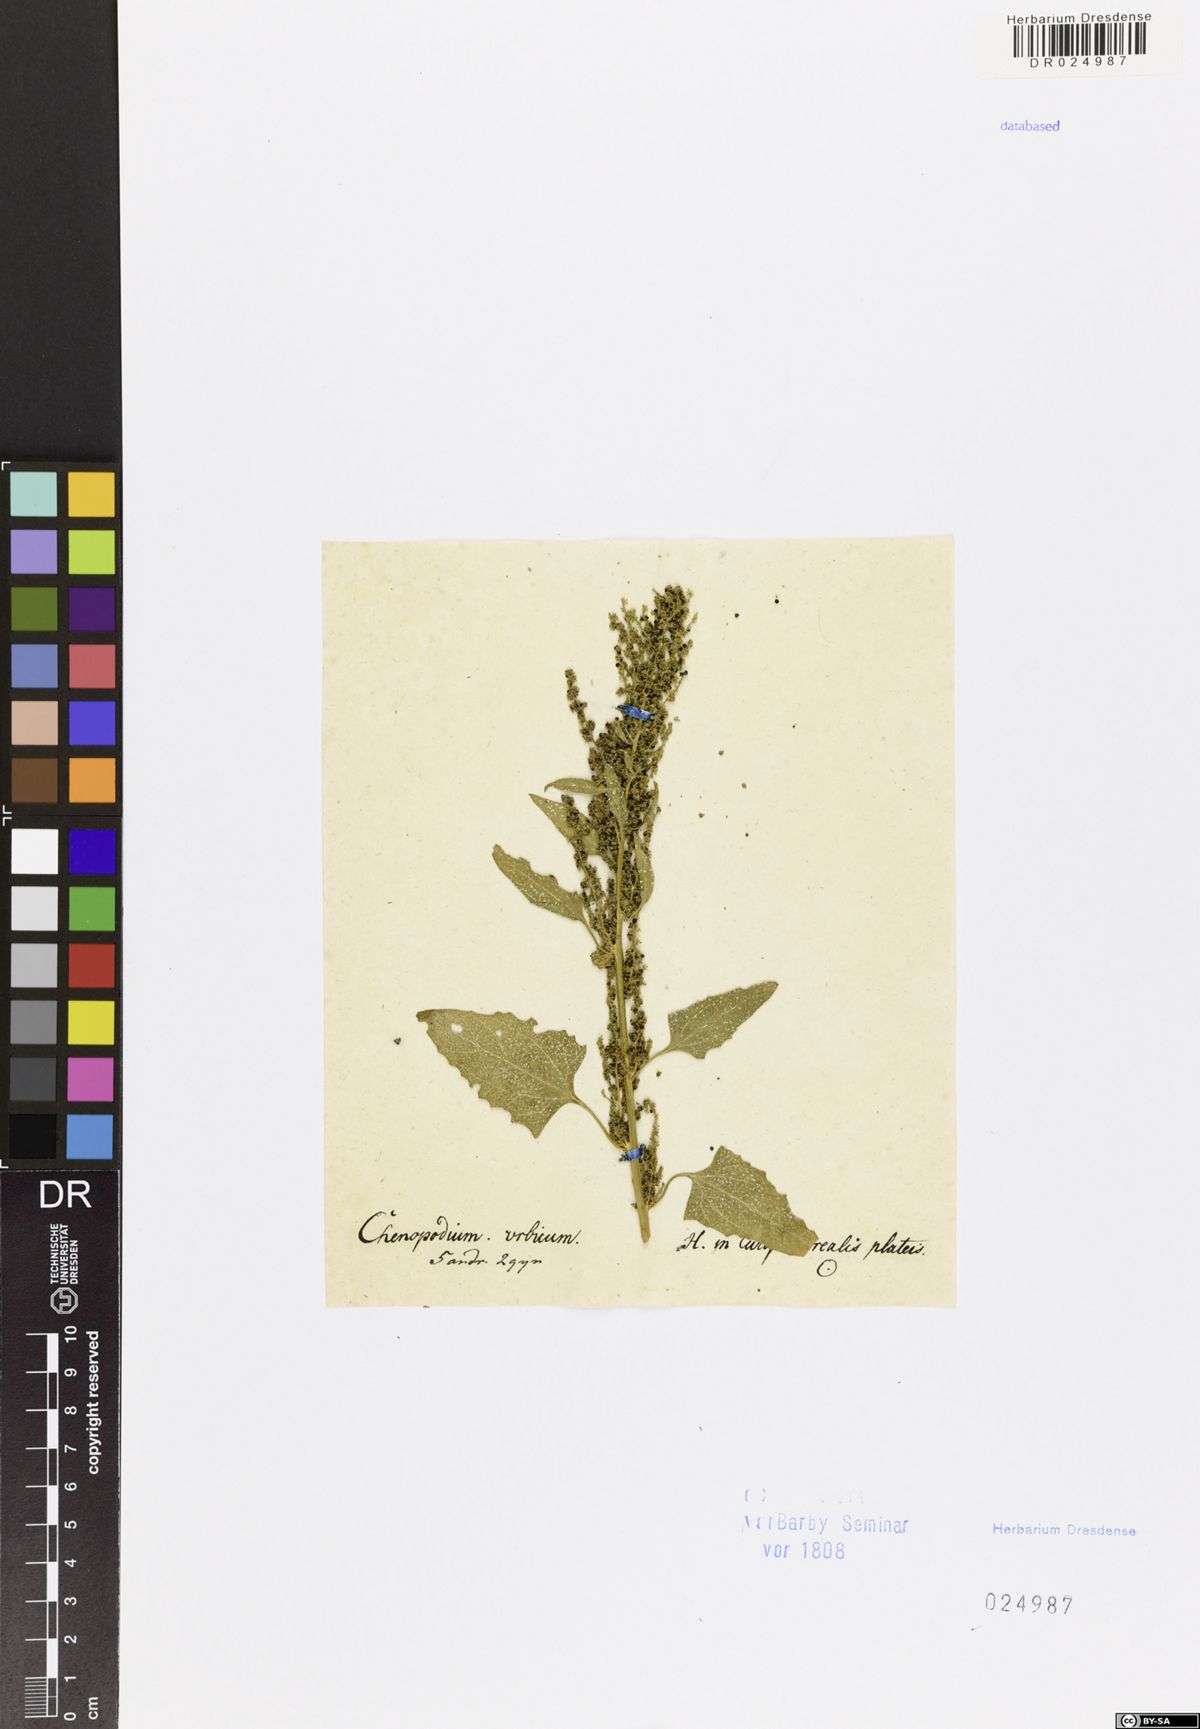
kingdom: Plantae
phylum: Tracheophyta
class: Magnoliopsida
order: Caryophyllales
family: Amaranthaceae
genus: Oxybasis
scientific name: Oxybasis urbica
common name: City goosefoot
